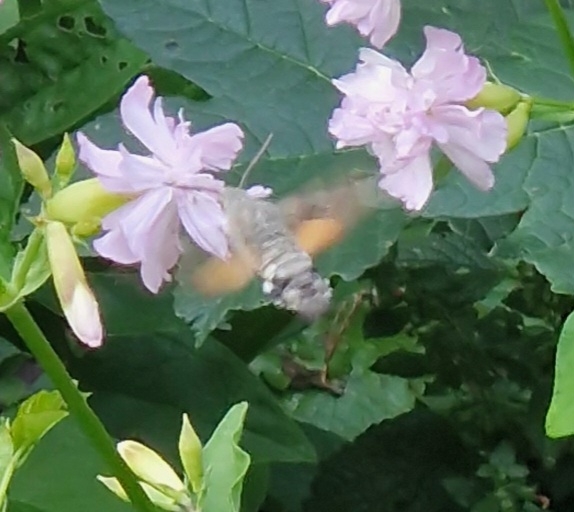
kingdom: Animalia
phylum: Arthropoda
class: Insecta
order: Lepidoptera
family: Sphingidae
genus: Macroglossum
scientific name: Macroglossum stellatarum
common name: Duehale
